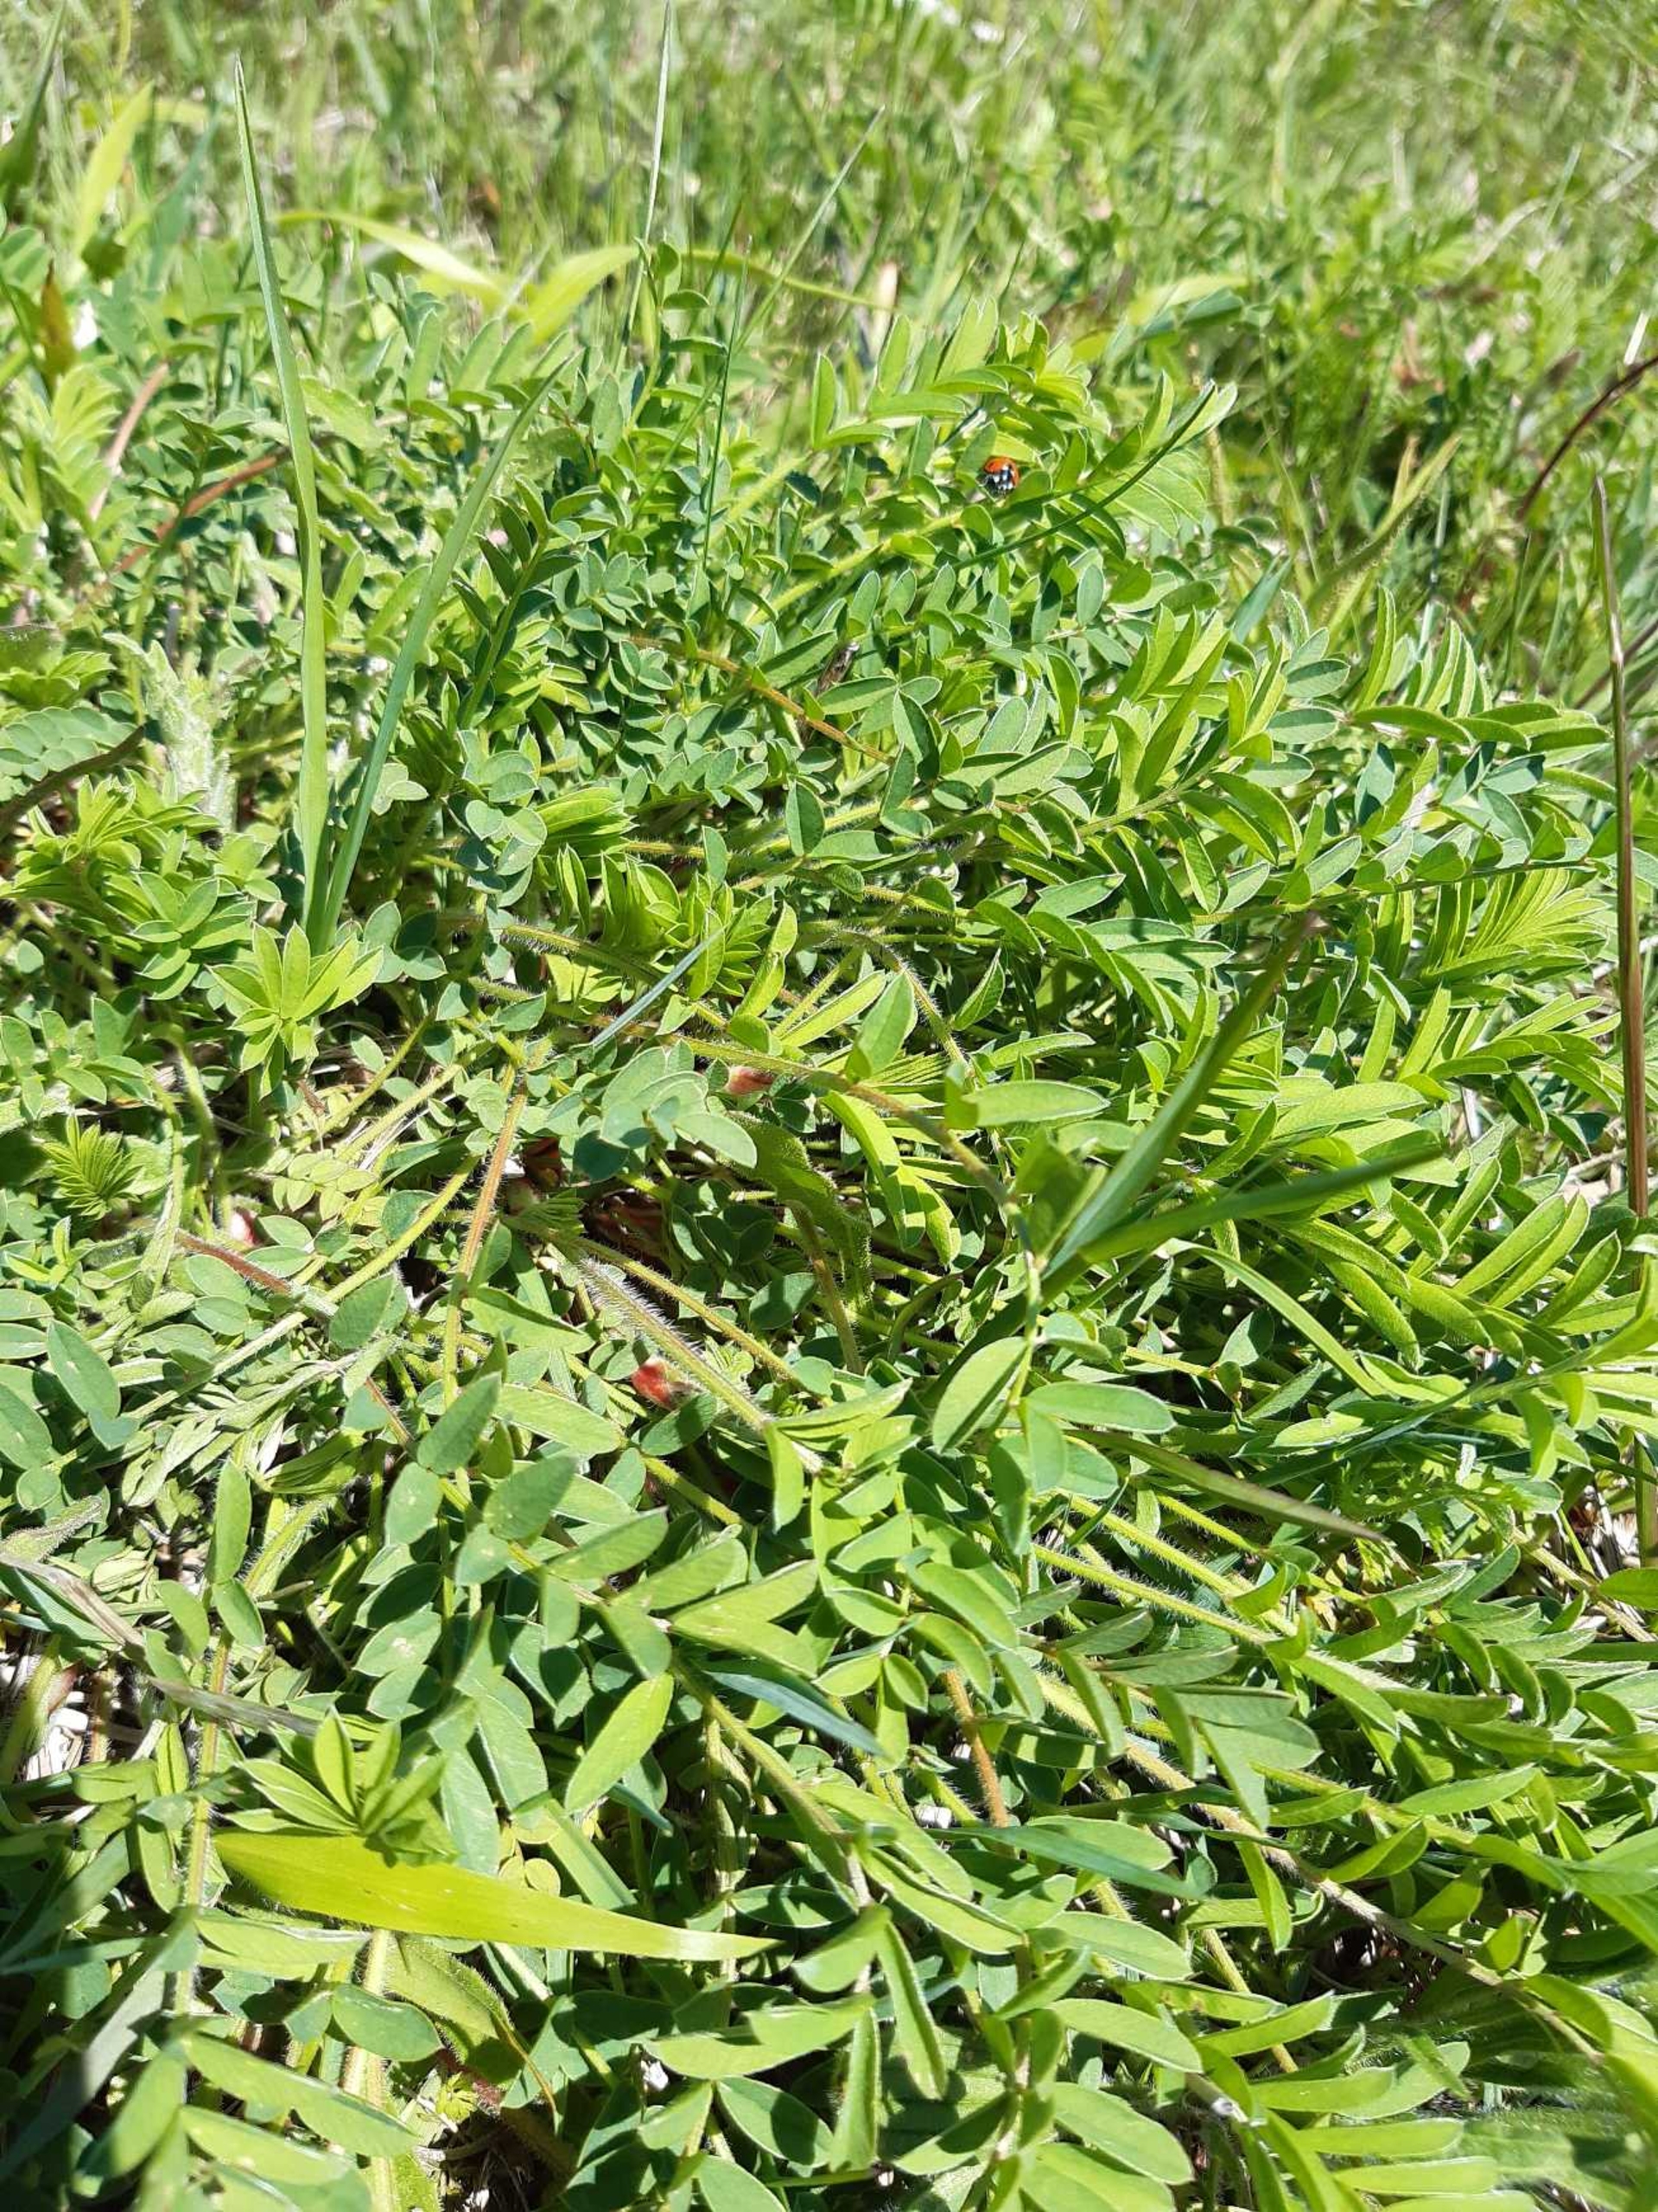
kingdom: Plantae
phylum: Tracheophyta
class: Magnoliopsida
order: Fabales
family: Fabaceae
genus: Onobrychis
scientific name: Onobrychis viciifolia
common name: Esparsette
